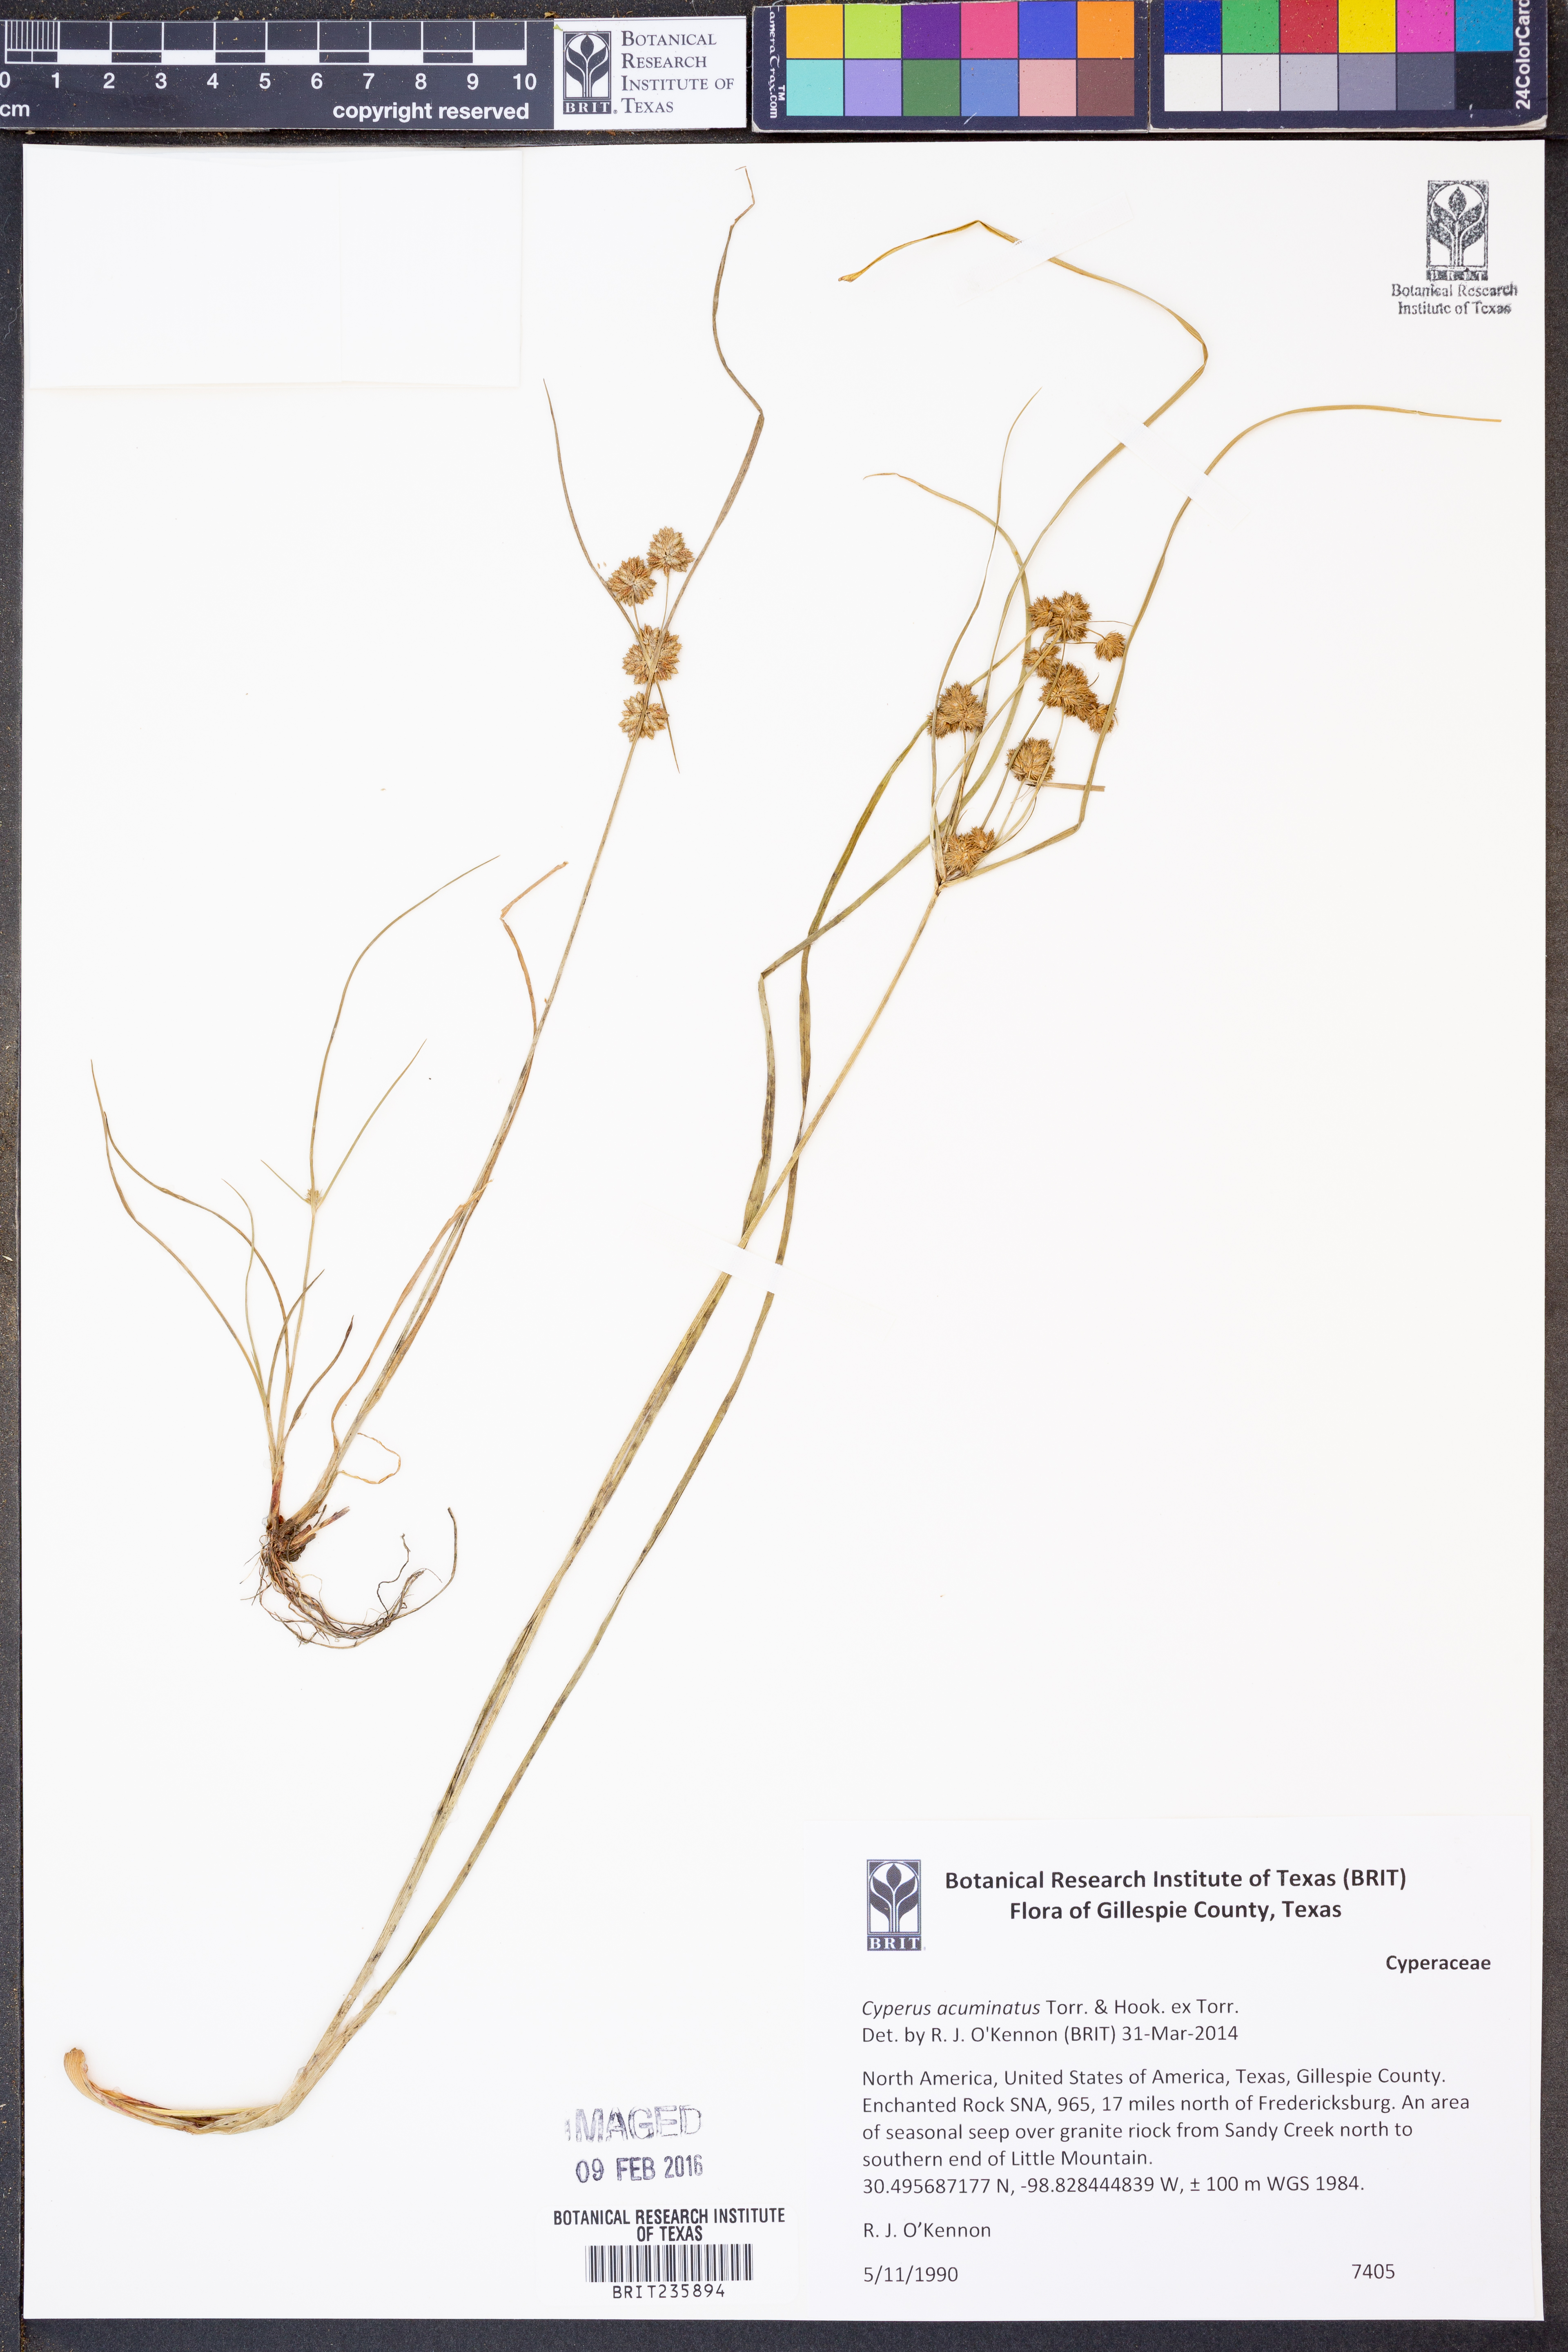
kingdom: Plantae
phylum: Tracheophyta
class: Liliopsida
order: Poales
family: Cyperaceae
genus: Cyperus
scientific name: Cyperus acuminatus
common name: Short-pointed cyperus
